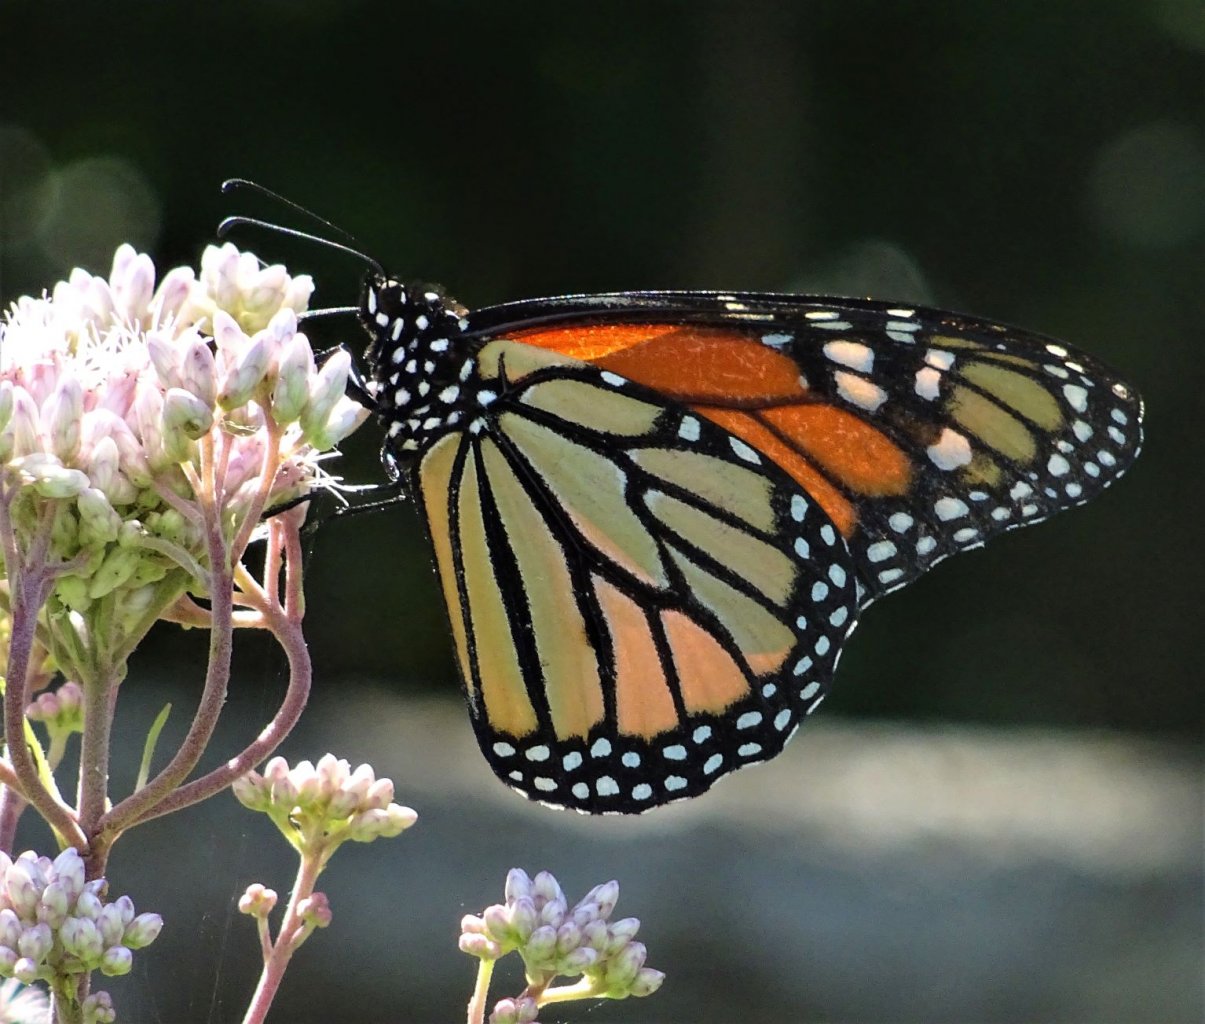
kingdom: Animalia
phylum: Arthropoda
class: Insecta
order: Lepidoptera
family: Nymphalidae
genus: Danaus
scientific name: Danaus plexippus
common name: Monarch
